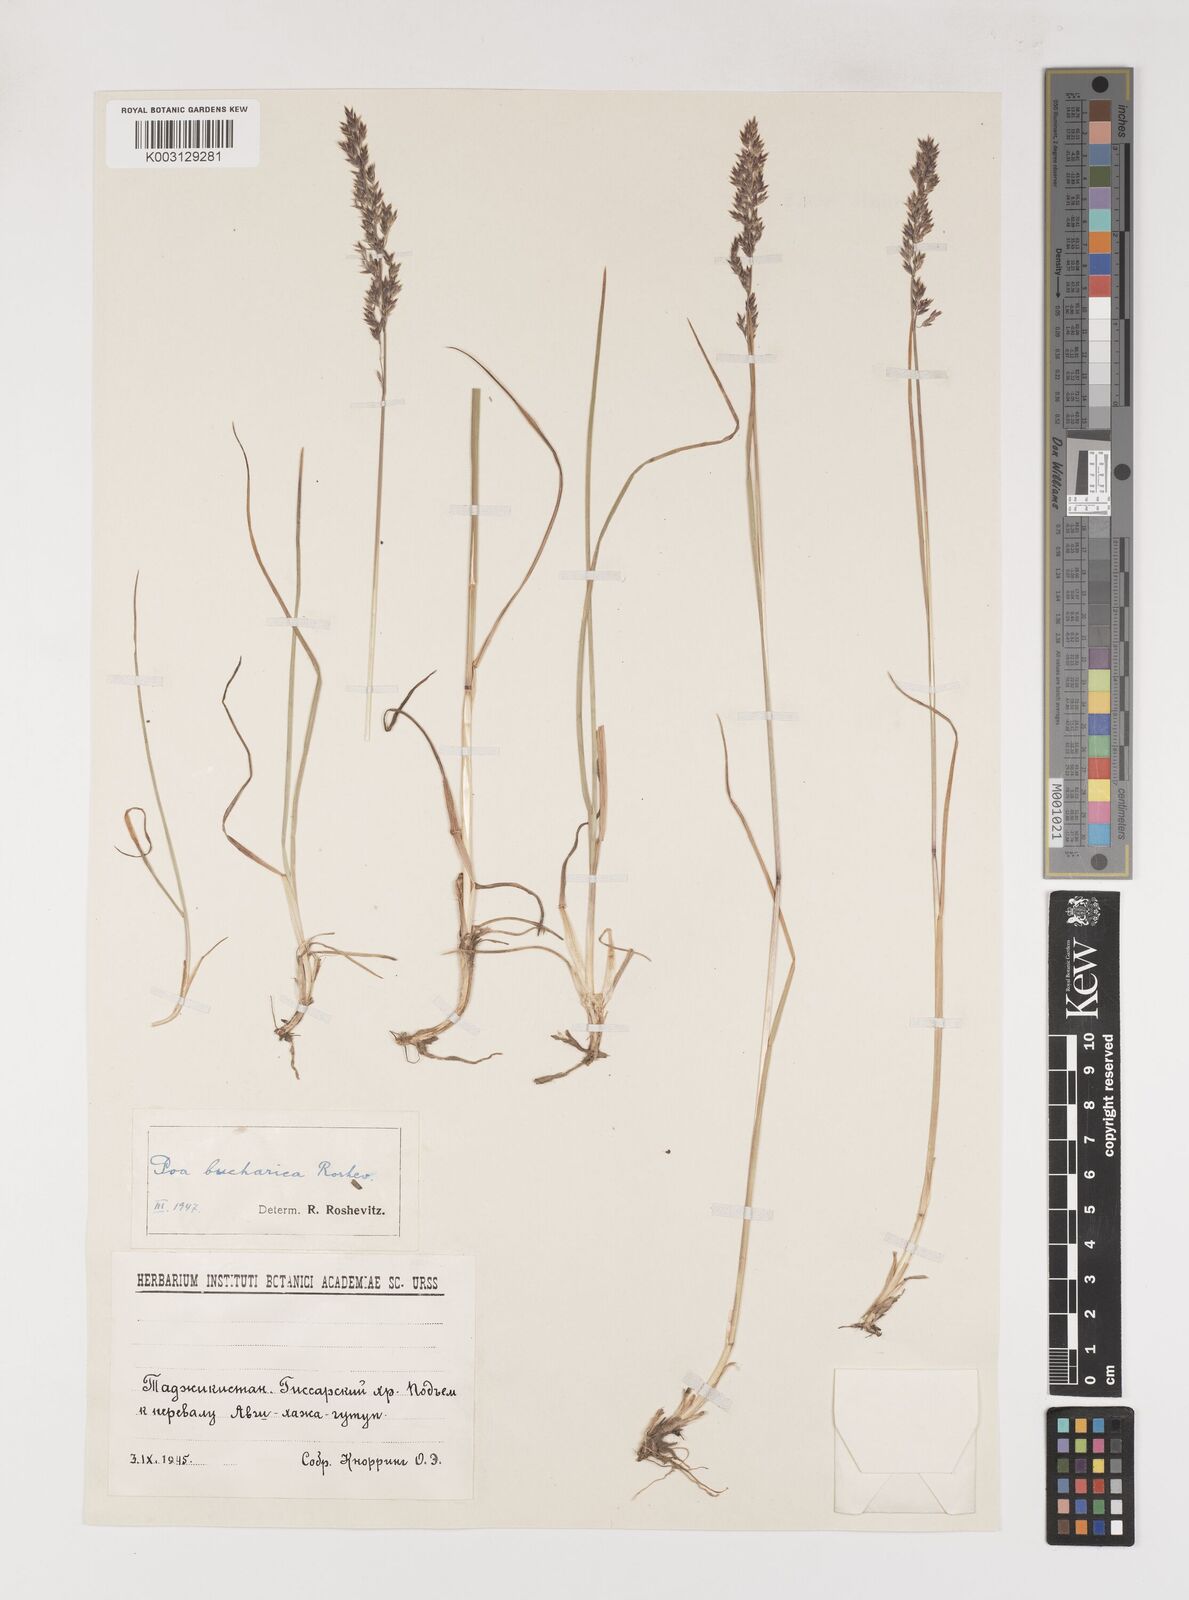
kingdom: Plantae
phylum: Tracheophyta
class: Liliopsida
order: Poales
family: Poaceae
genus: Poa
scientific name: Poa bucharica
